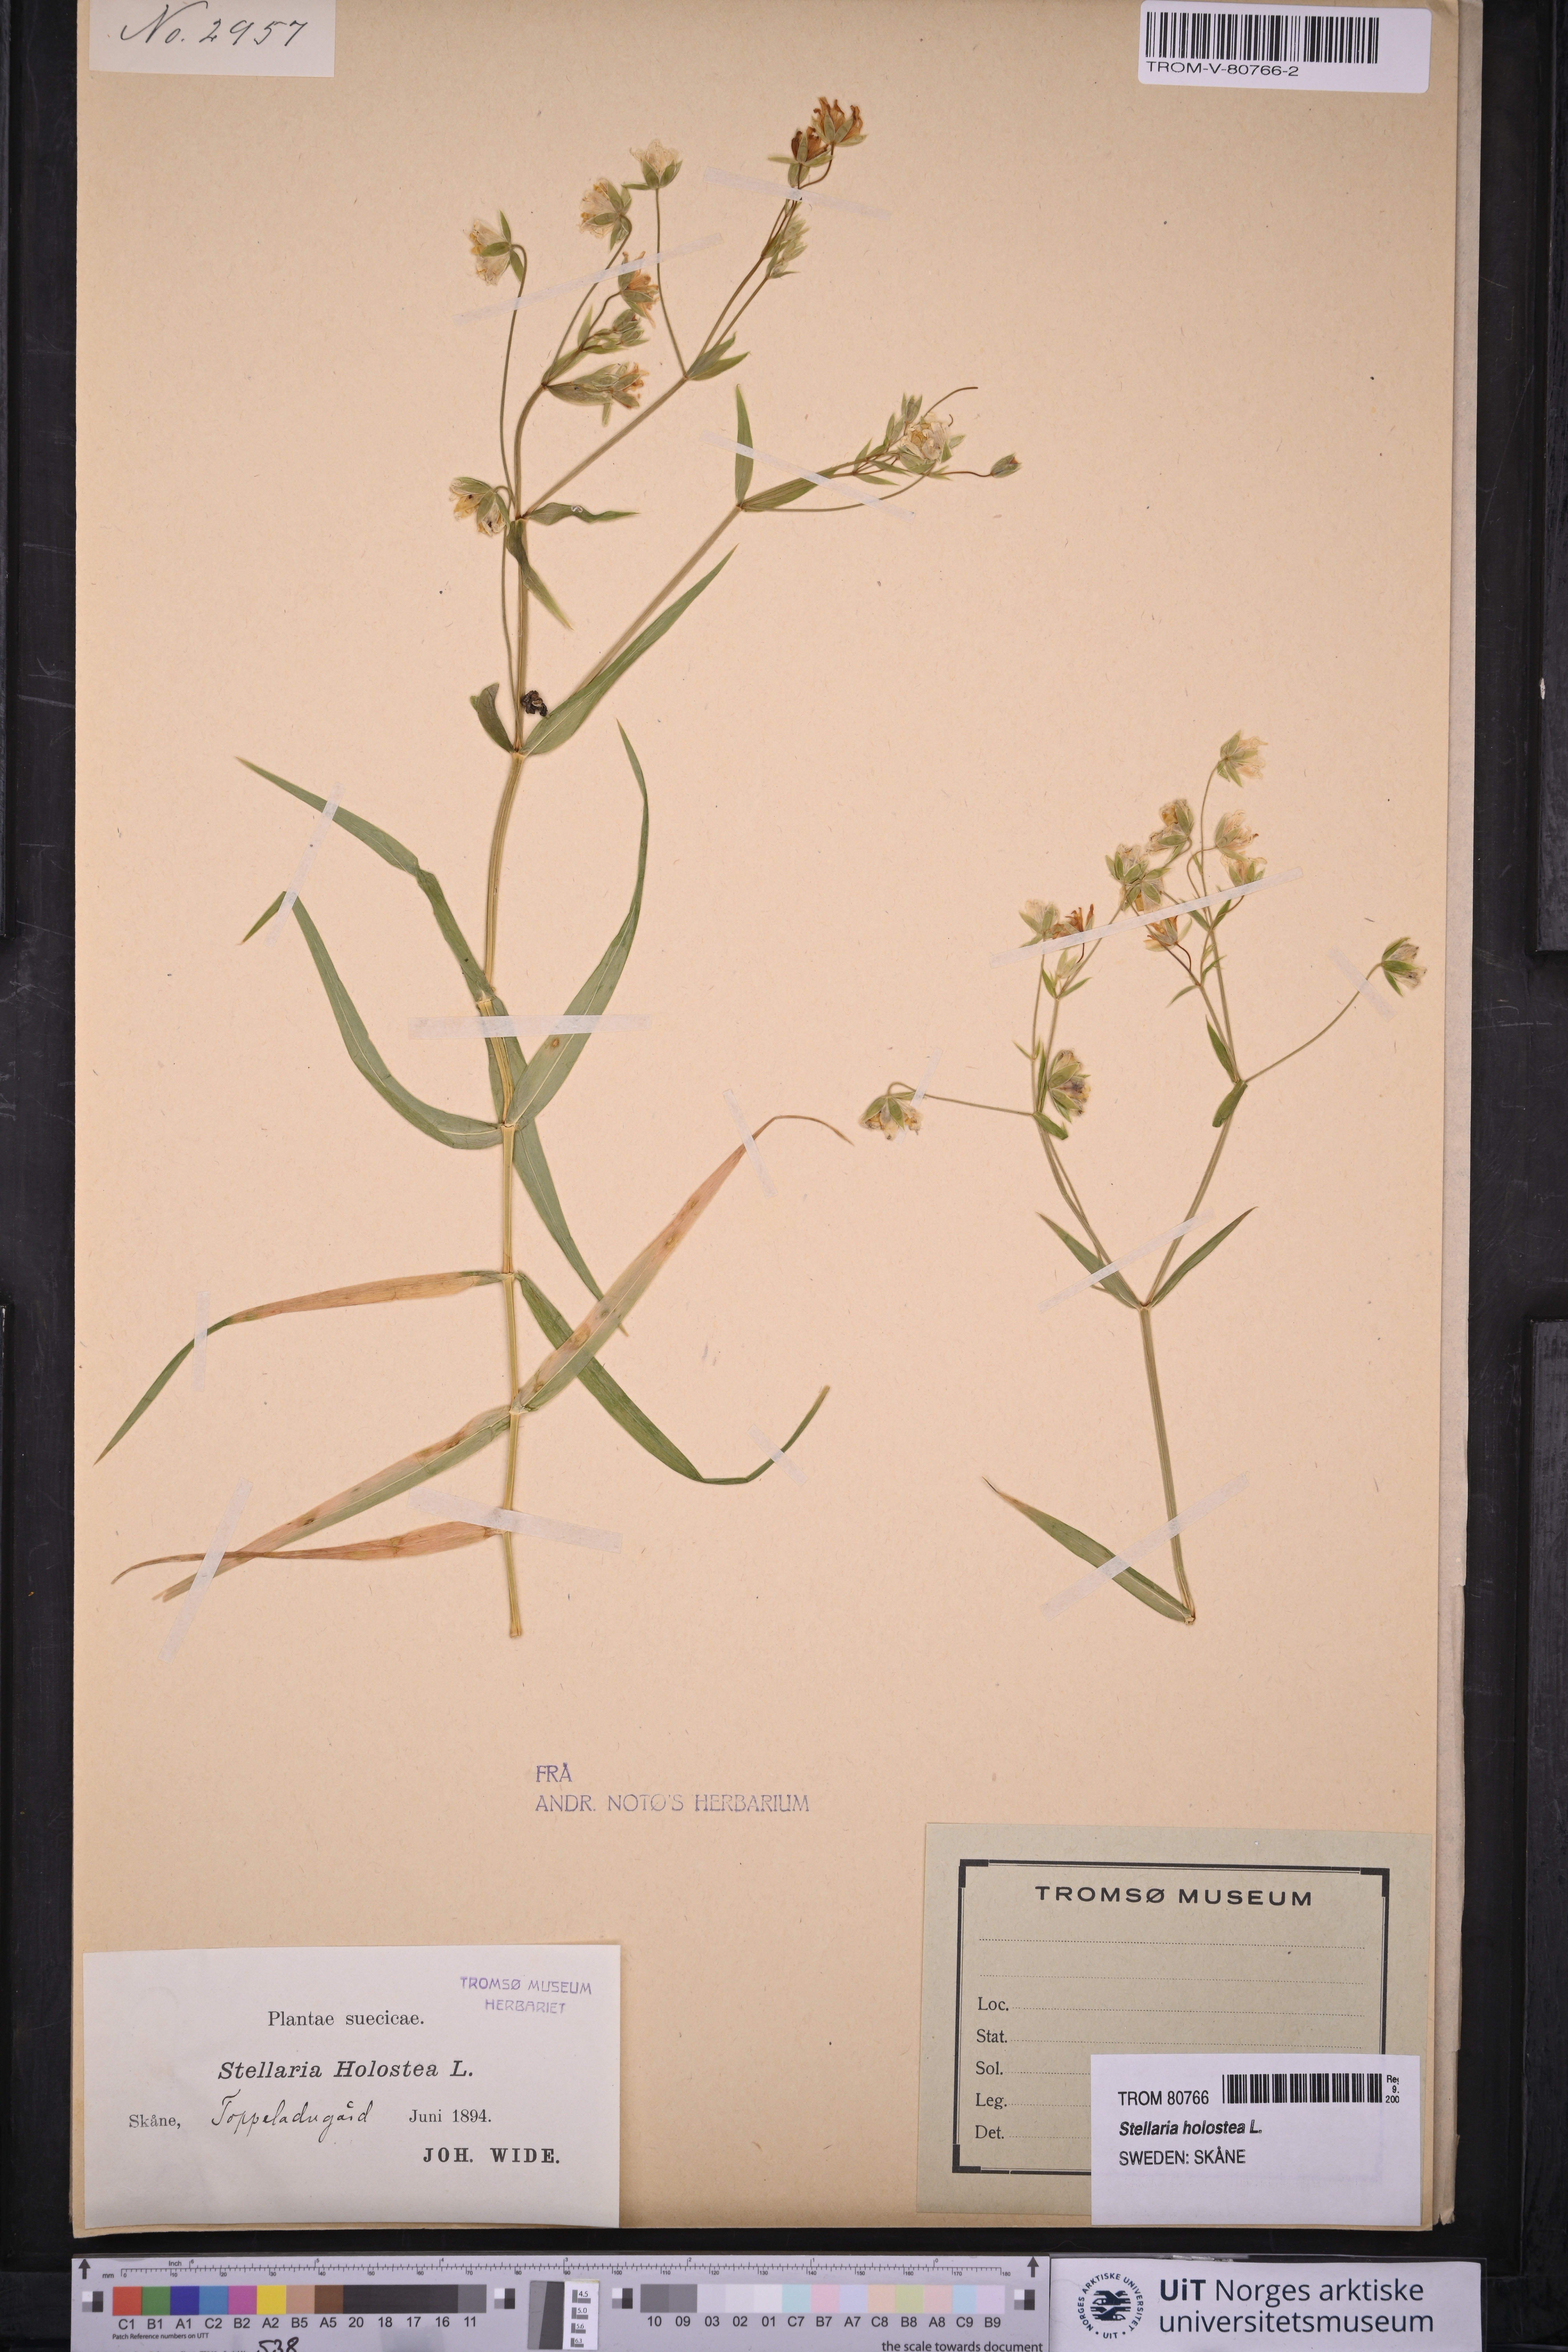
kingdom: Plantae
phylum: Tracheophyta
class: Magnoliopsida
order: Caryophyllales
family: Caryophyllaceae
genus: Rabelera
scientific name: Rabelera holostea
